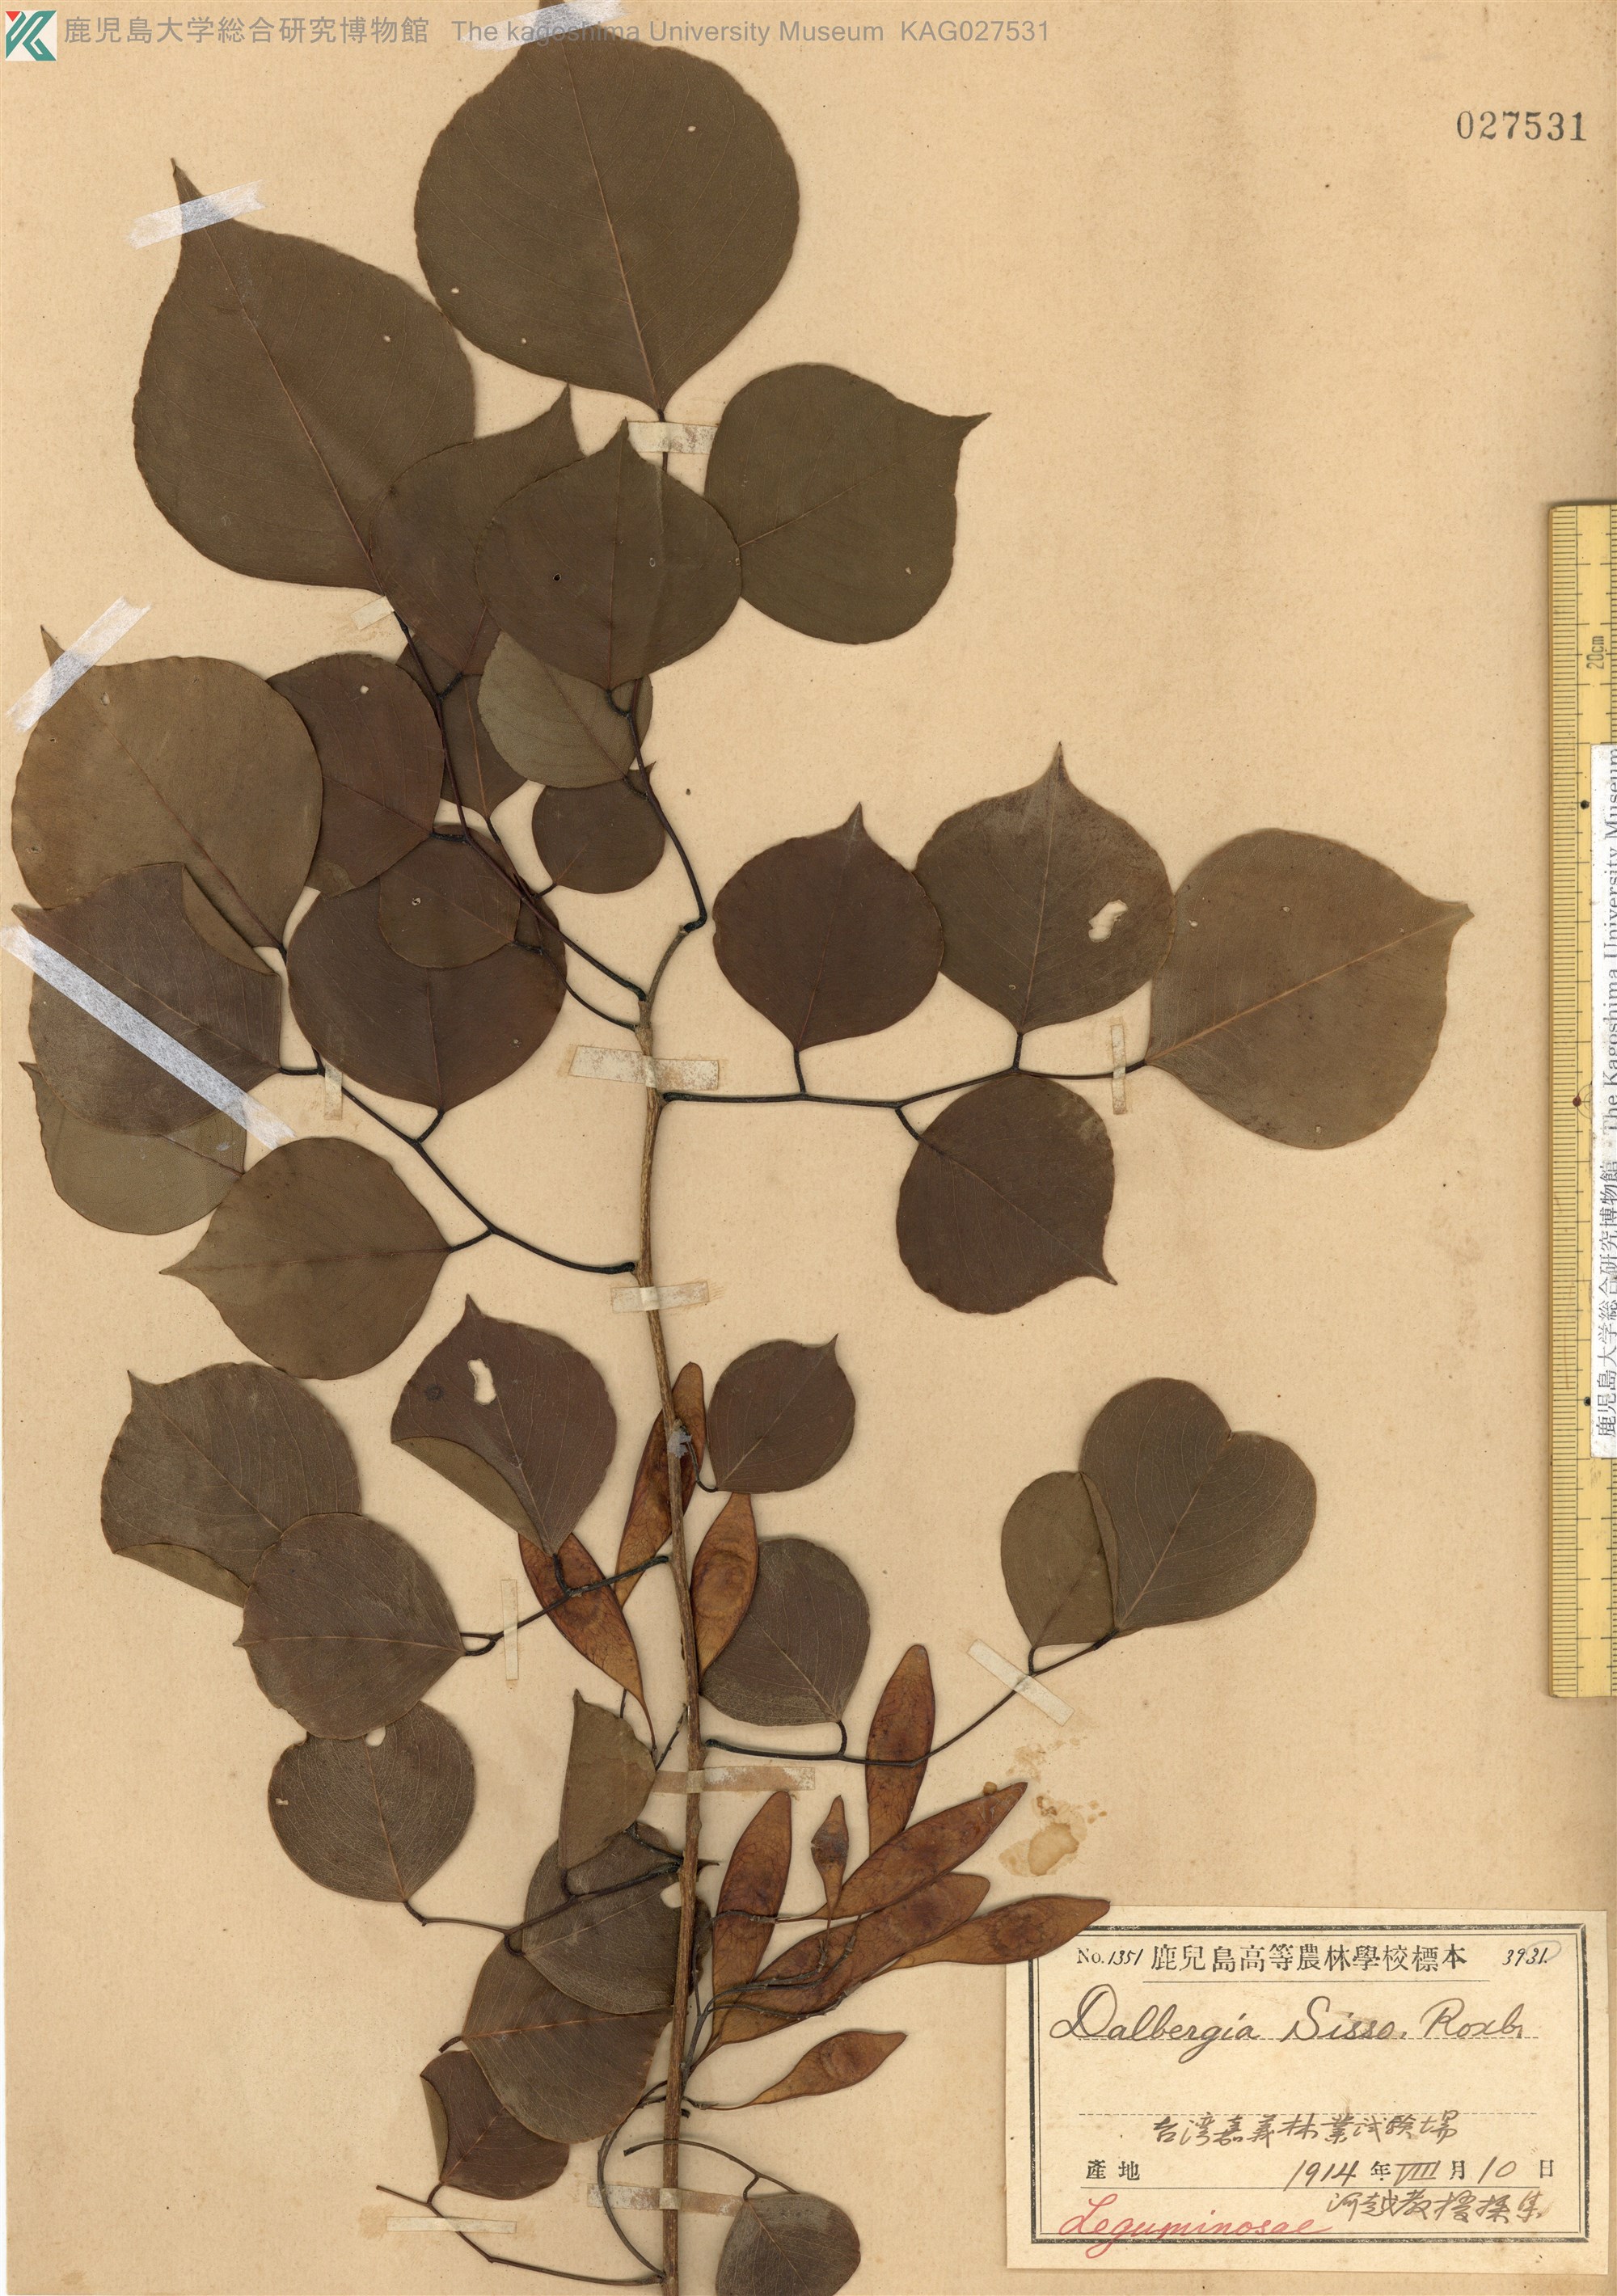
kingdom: Plantae
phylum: Tracheophyta
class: Magnoliopsida
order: Fabales
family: Fabaceae
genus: Dalbergia
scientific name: Dalbergia sissoo
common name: Indian rosewood
